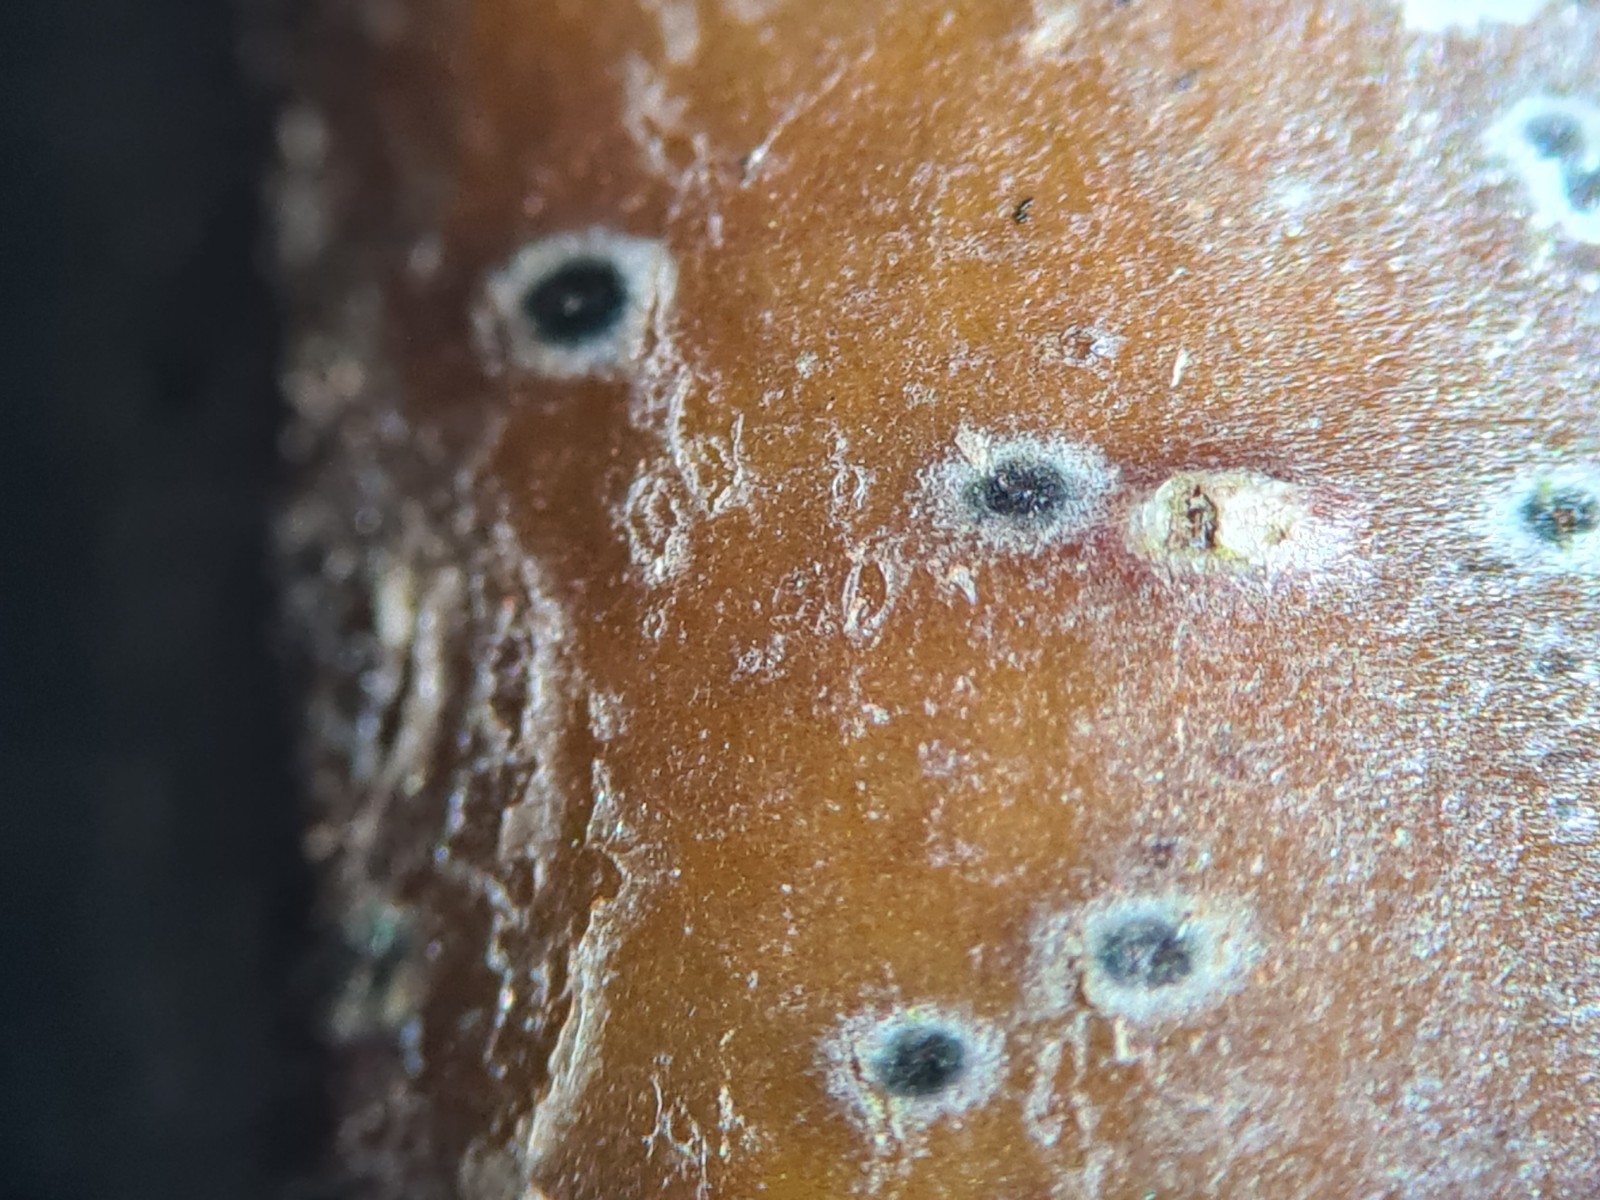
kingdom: Fungi
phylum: Ascomycota
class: Dothideomycetes
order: Dothideales
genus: Mycoglaena
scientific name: Mycoglaena myricae
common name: liden porsprik
